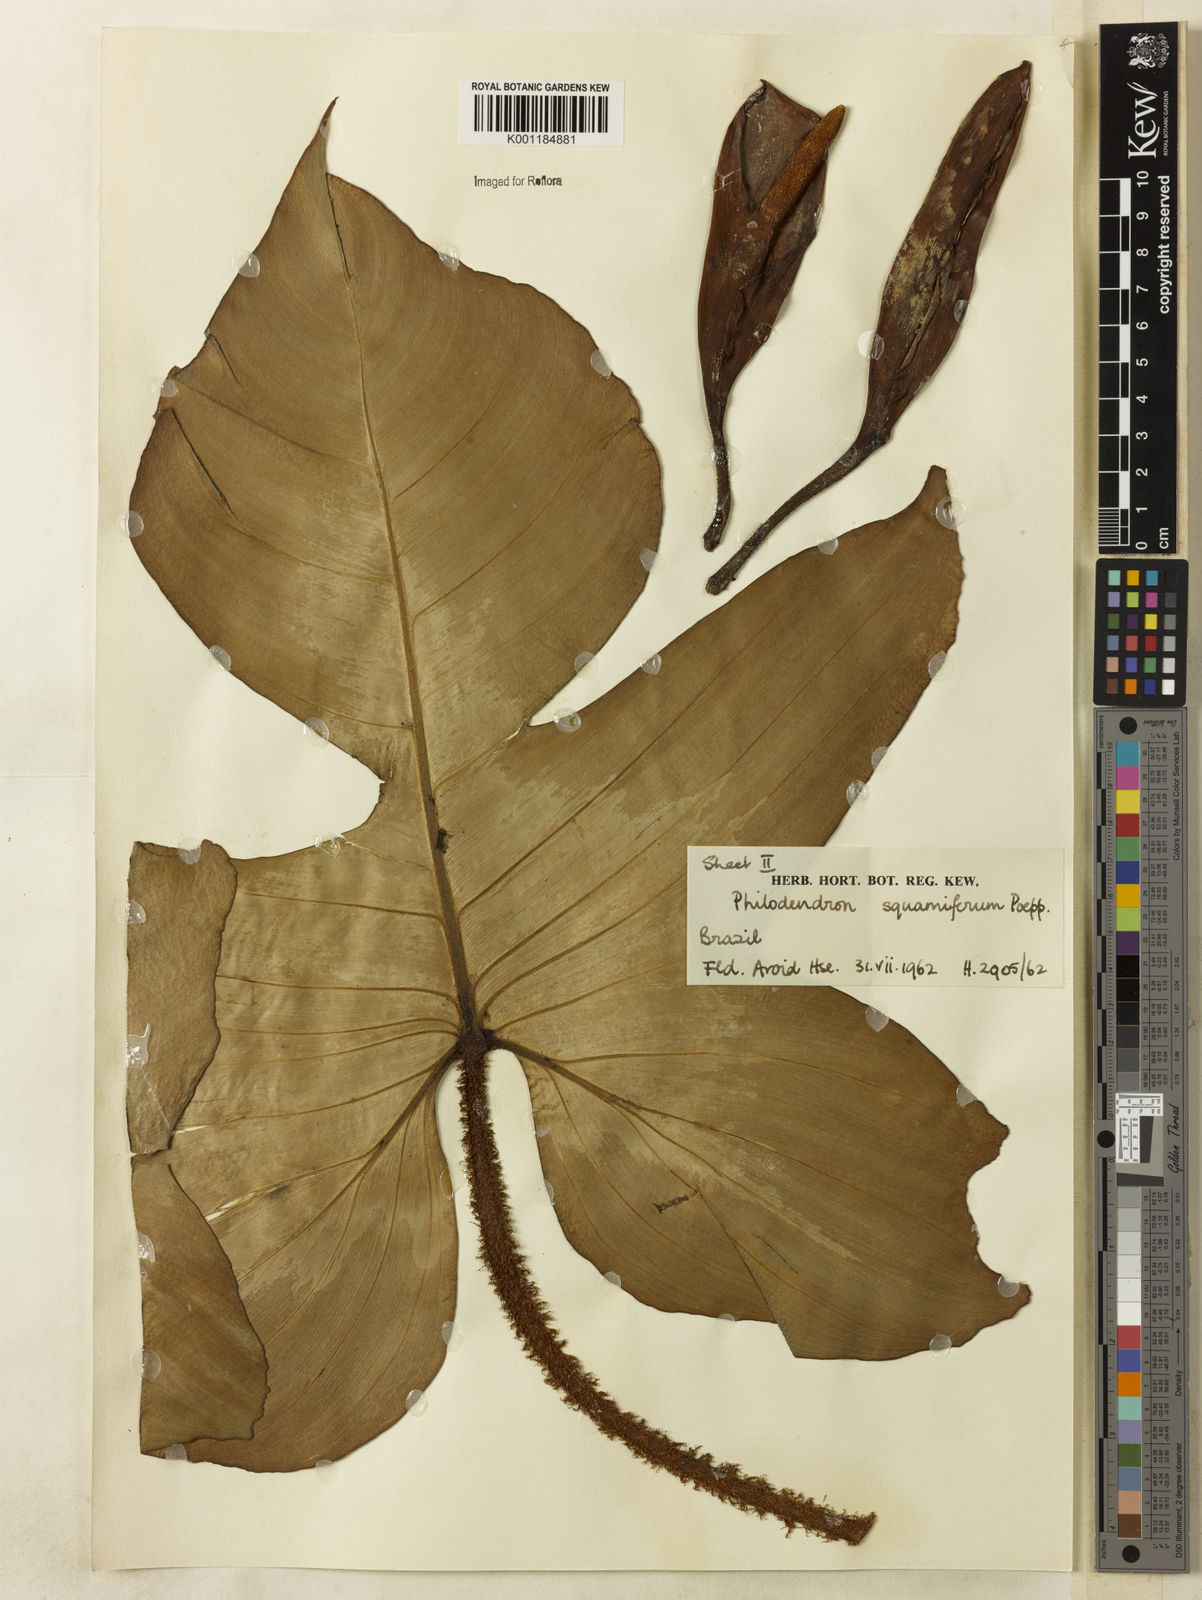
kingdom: Plantae
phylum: Tracheophyta
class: Liliopsida
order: Alismatales
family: Araceae
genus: Philodendron
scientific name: Philodendron squamiferum
